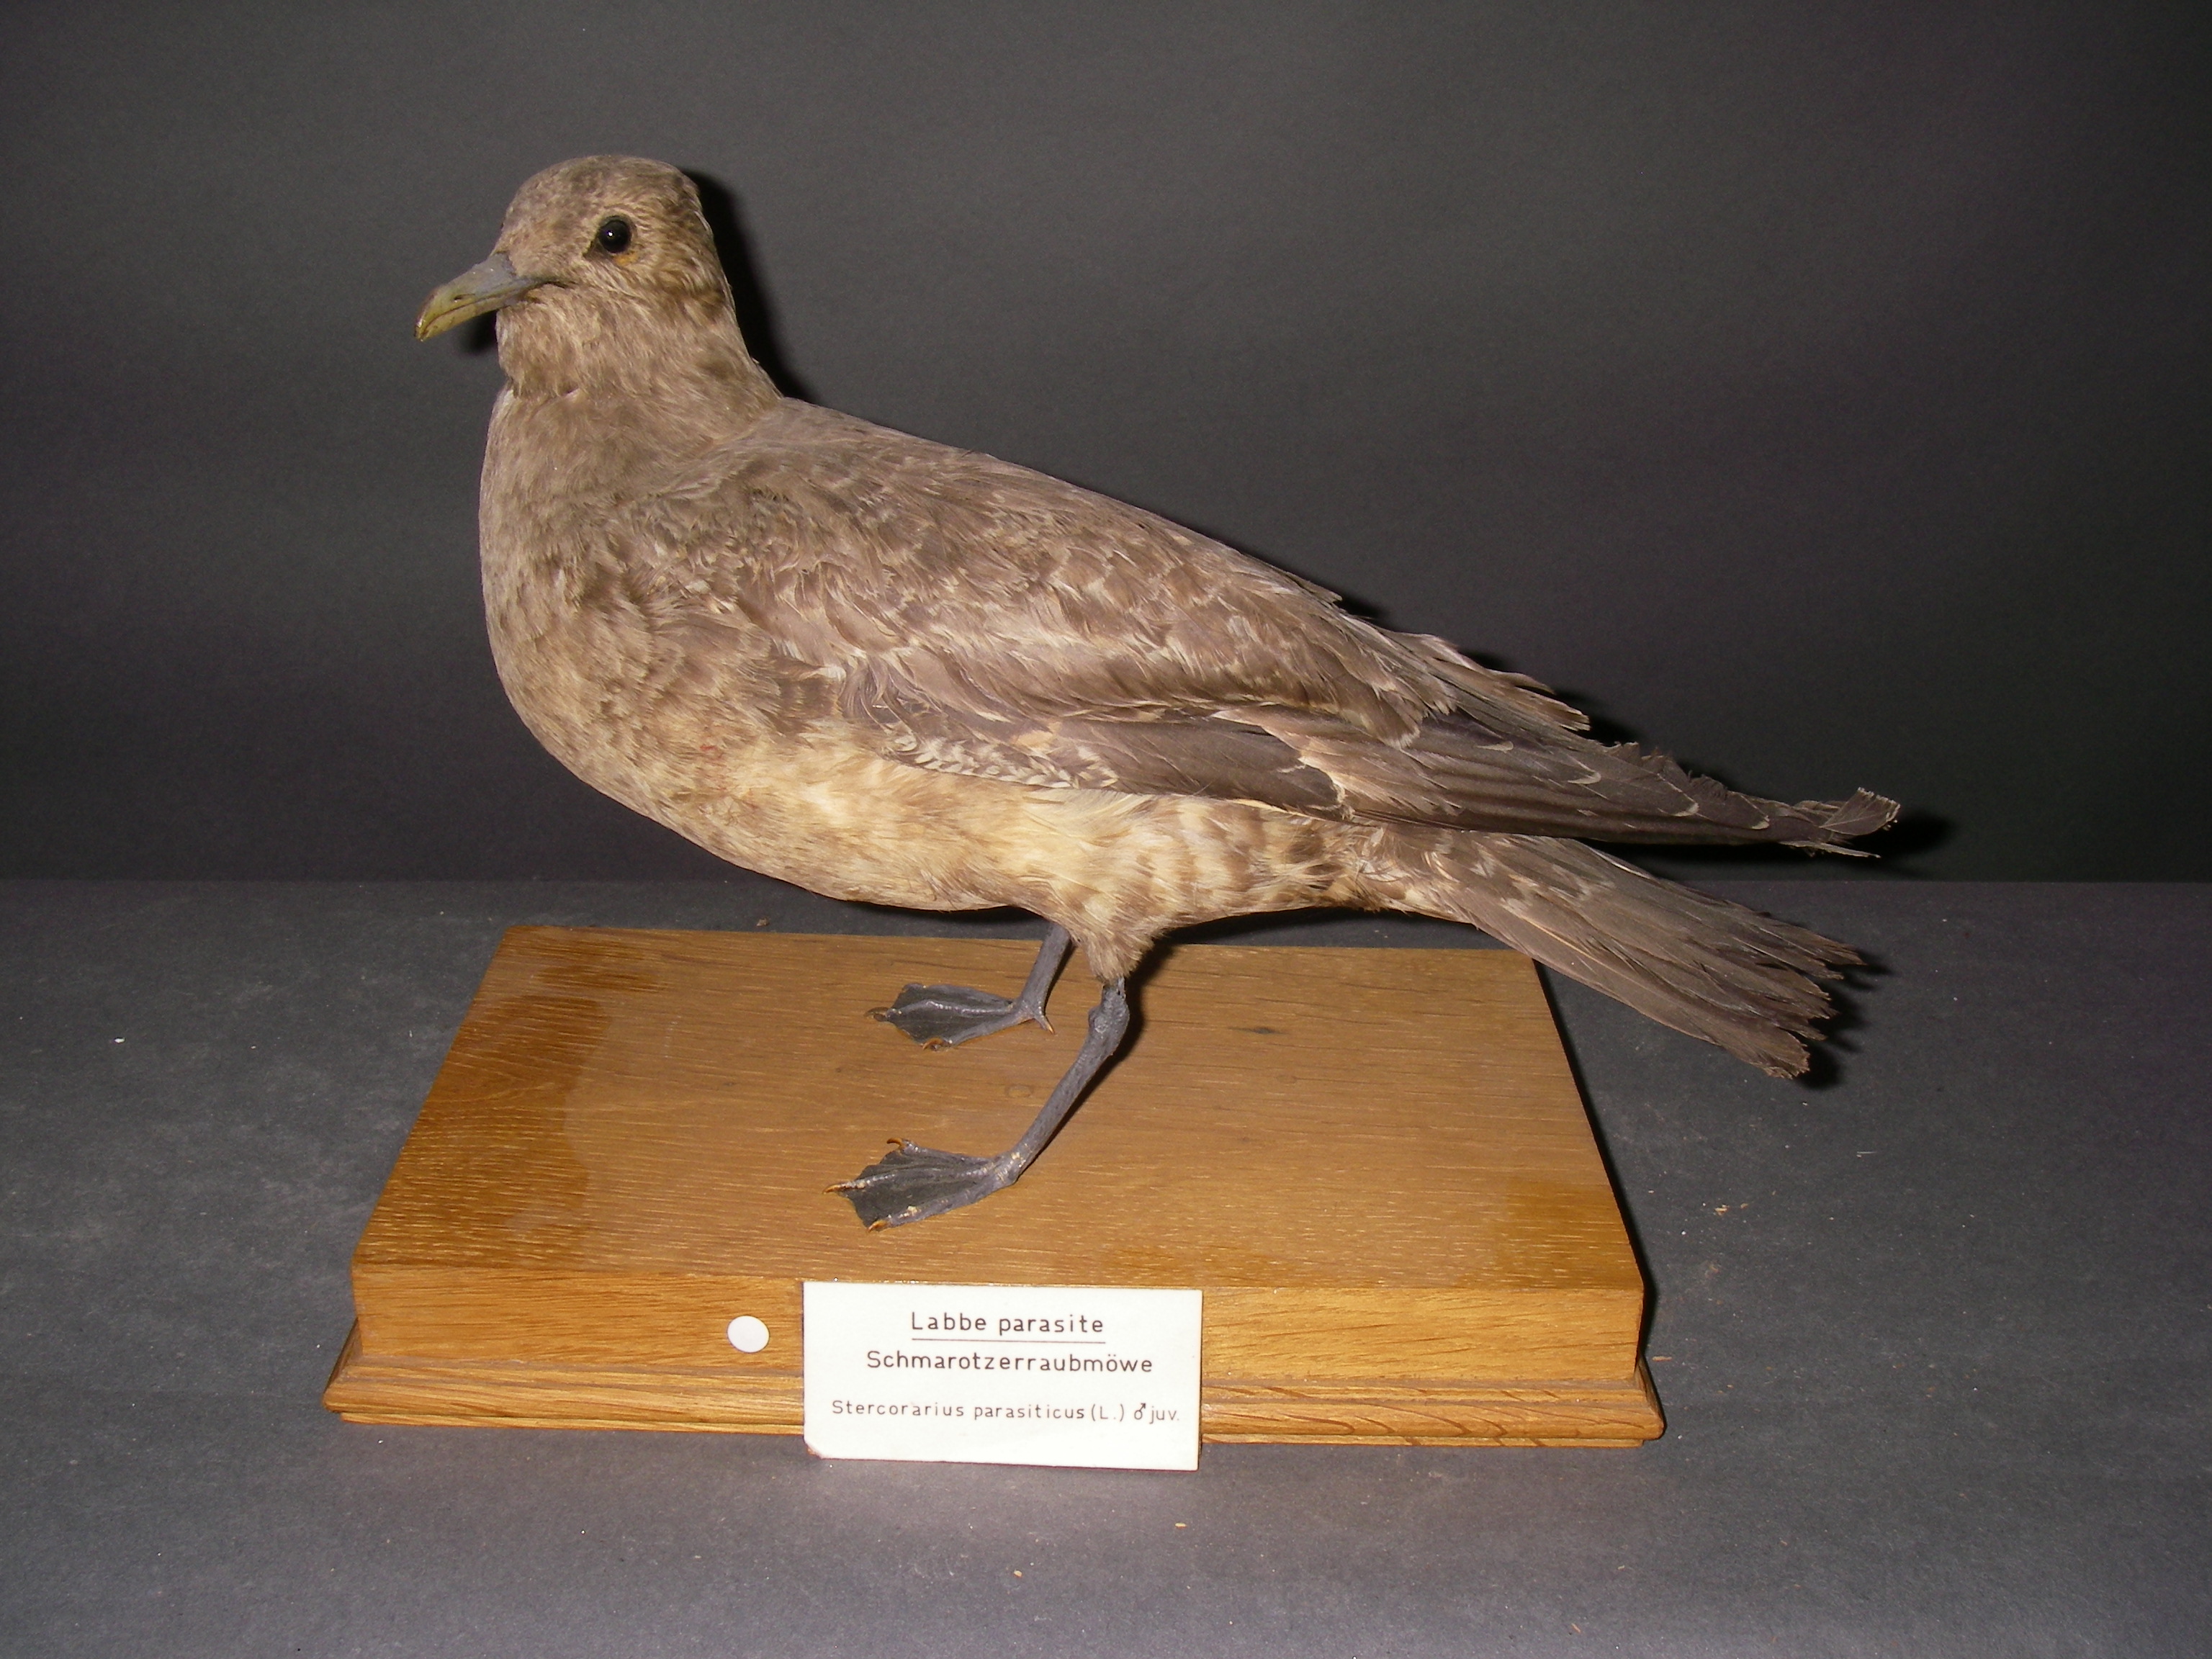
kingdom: Animalia
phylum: Chordata
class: Aves
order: Charadriiformes
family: Stercorariidae
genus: Stercorarius
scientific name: Stercorarius parasiticus
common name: Parasitic jaeger
